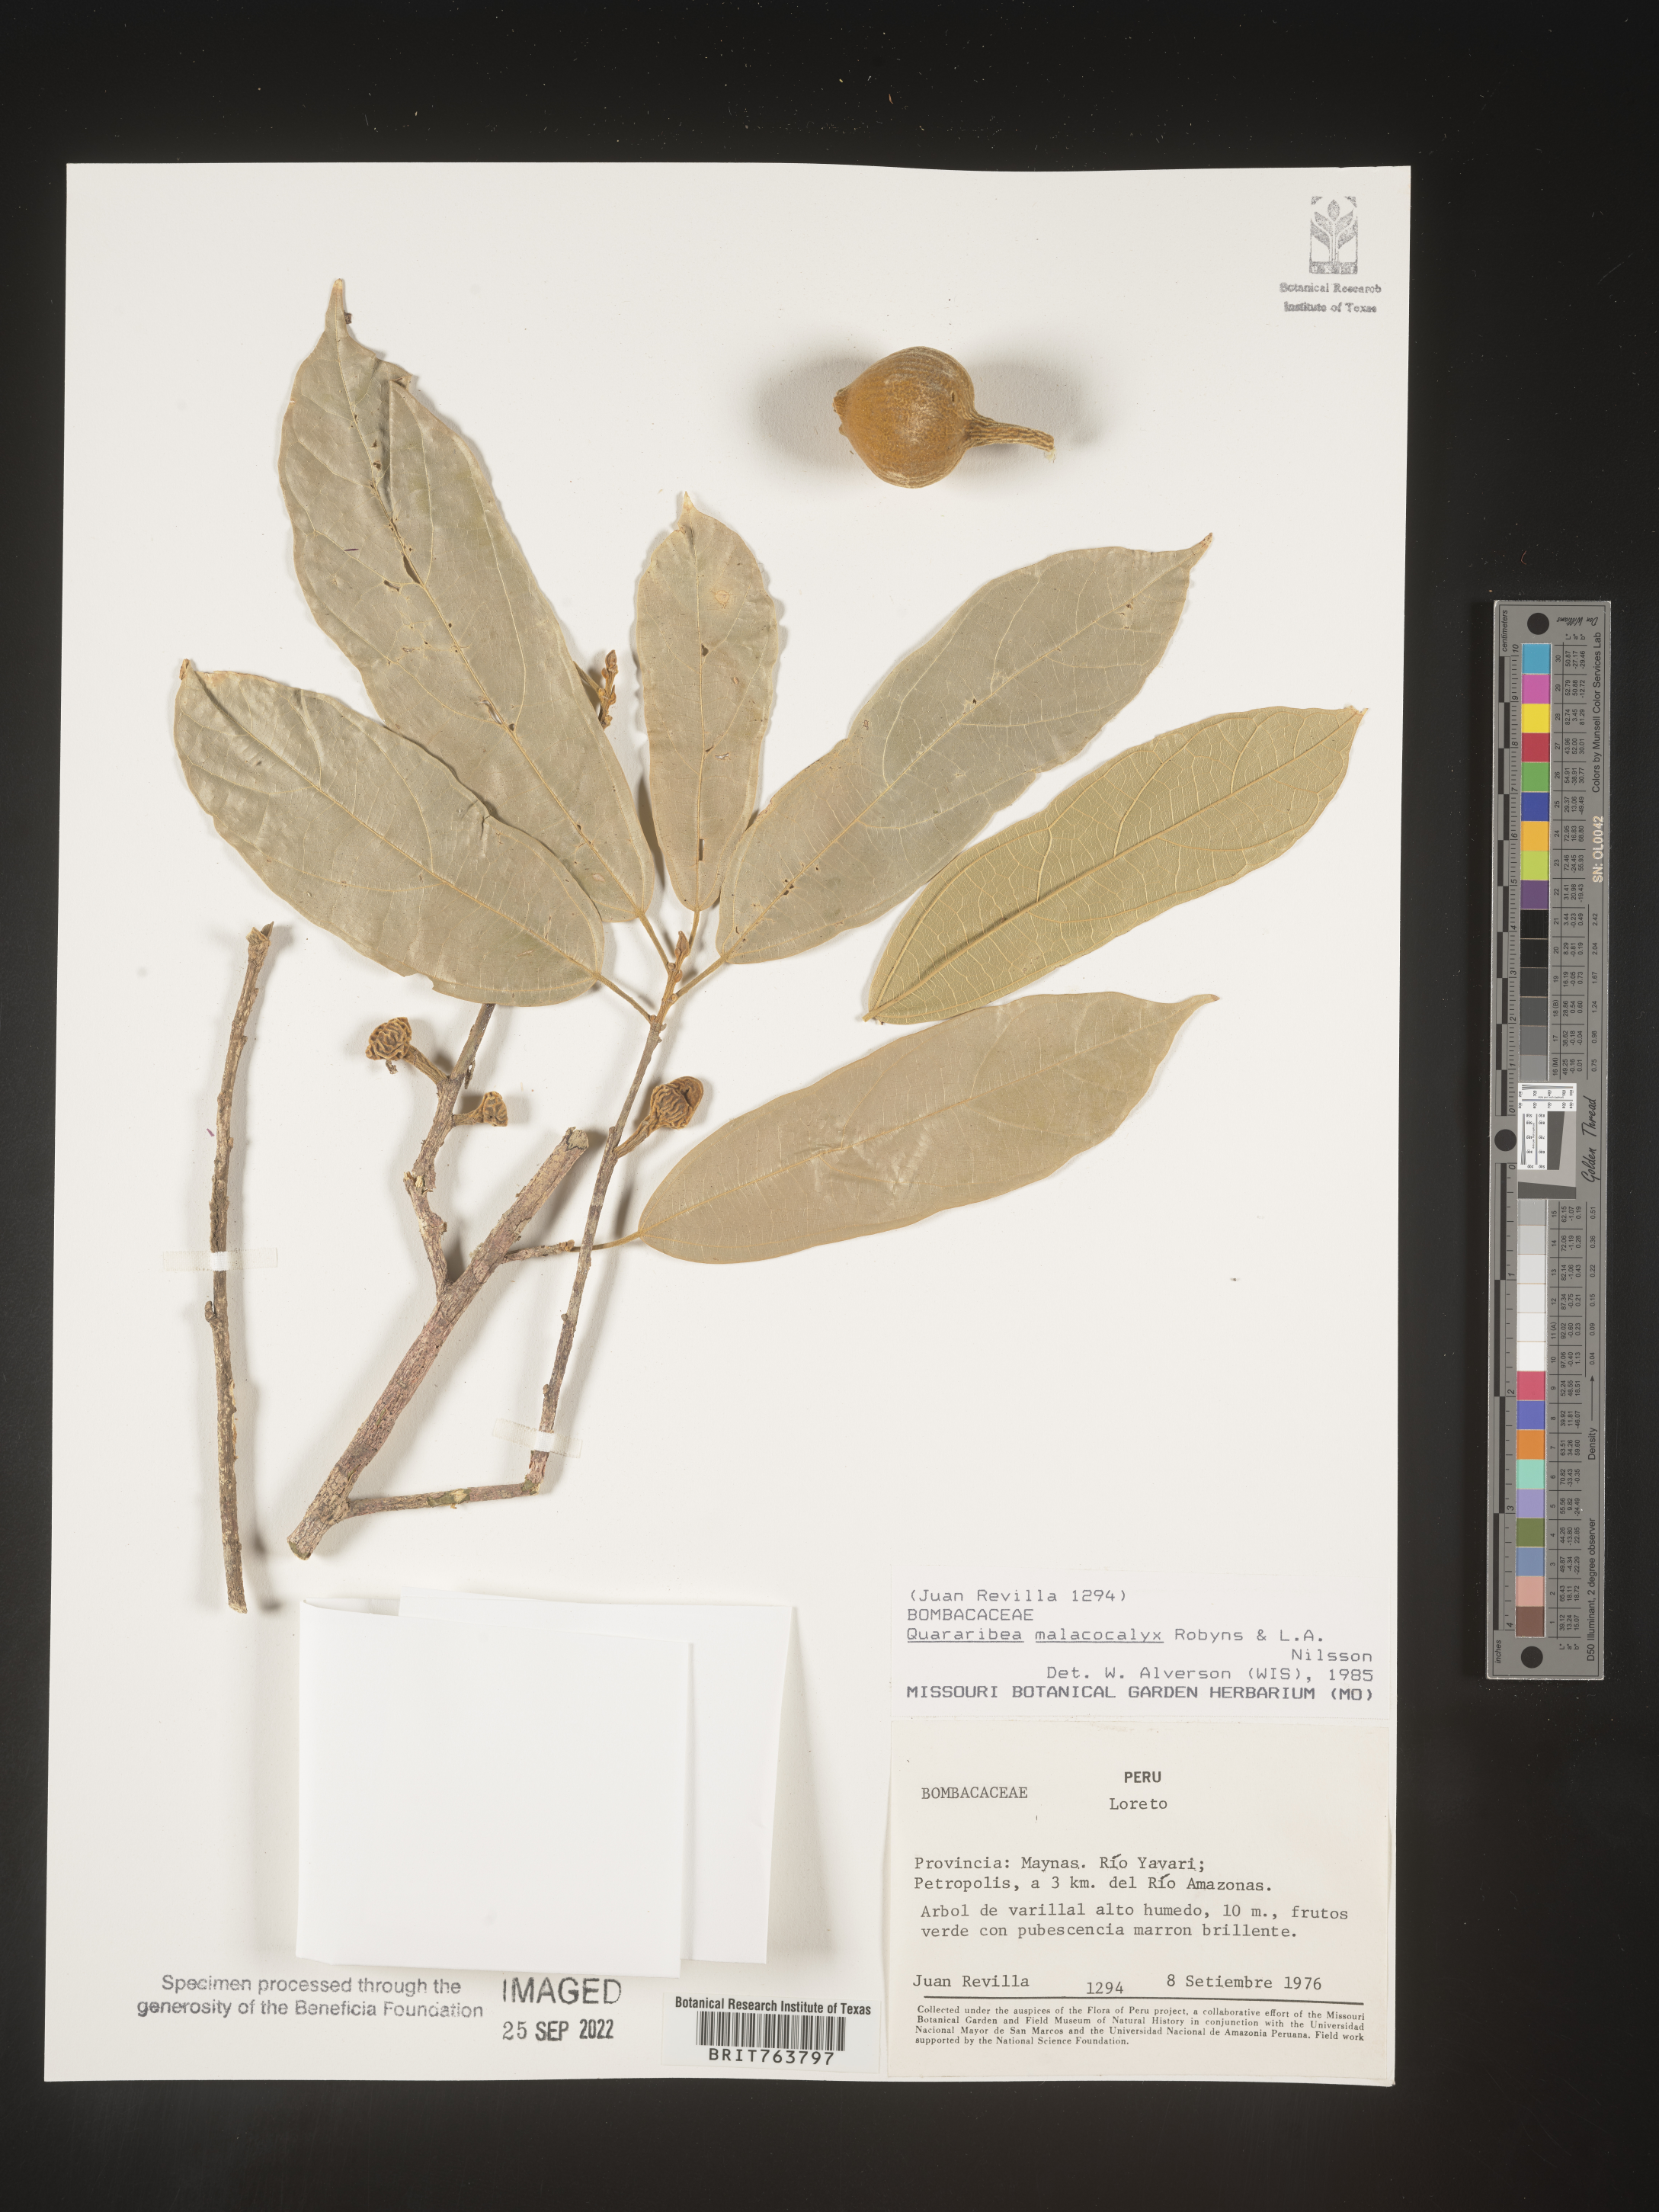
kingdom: Plantae
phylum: Tracheophyta
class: Magnoliopsida
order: Malvales
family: Malvaceae
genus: Quararibea
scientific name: Quararibea
